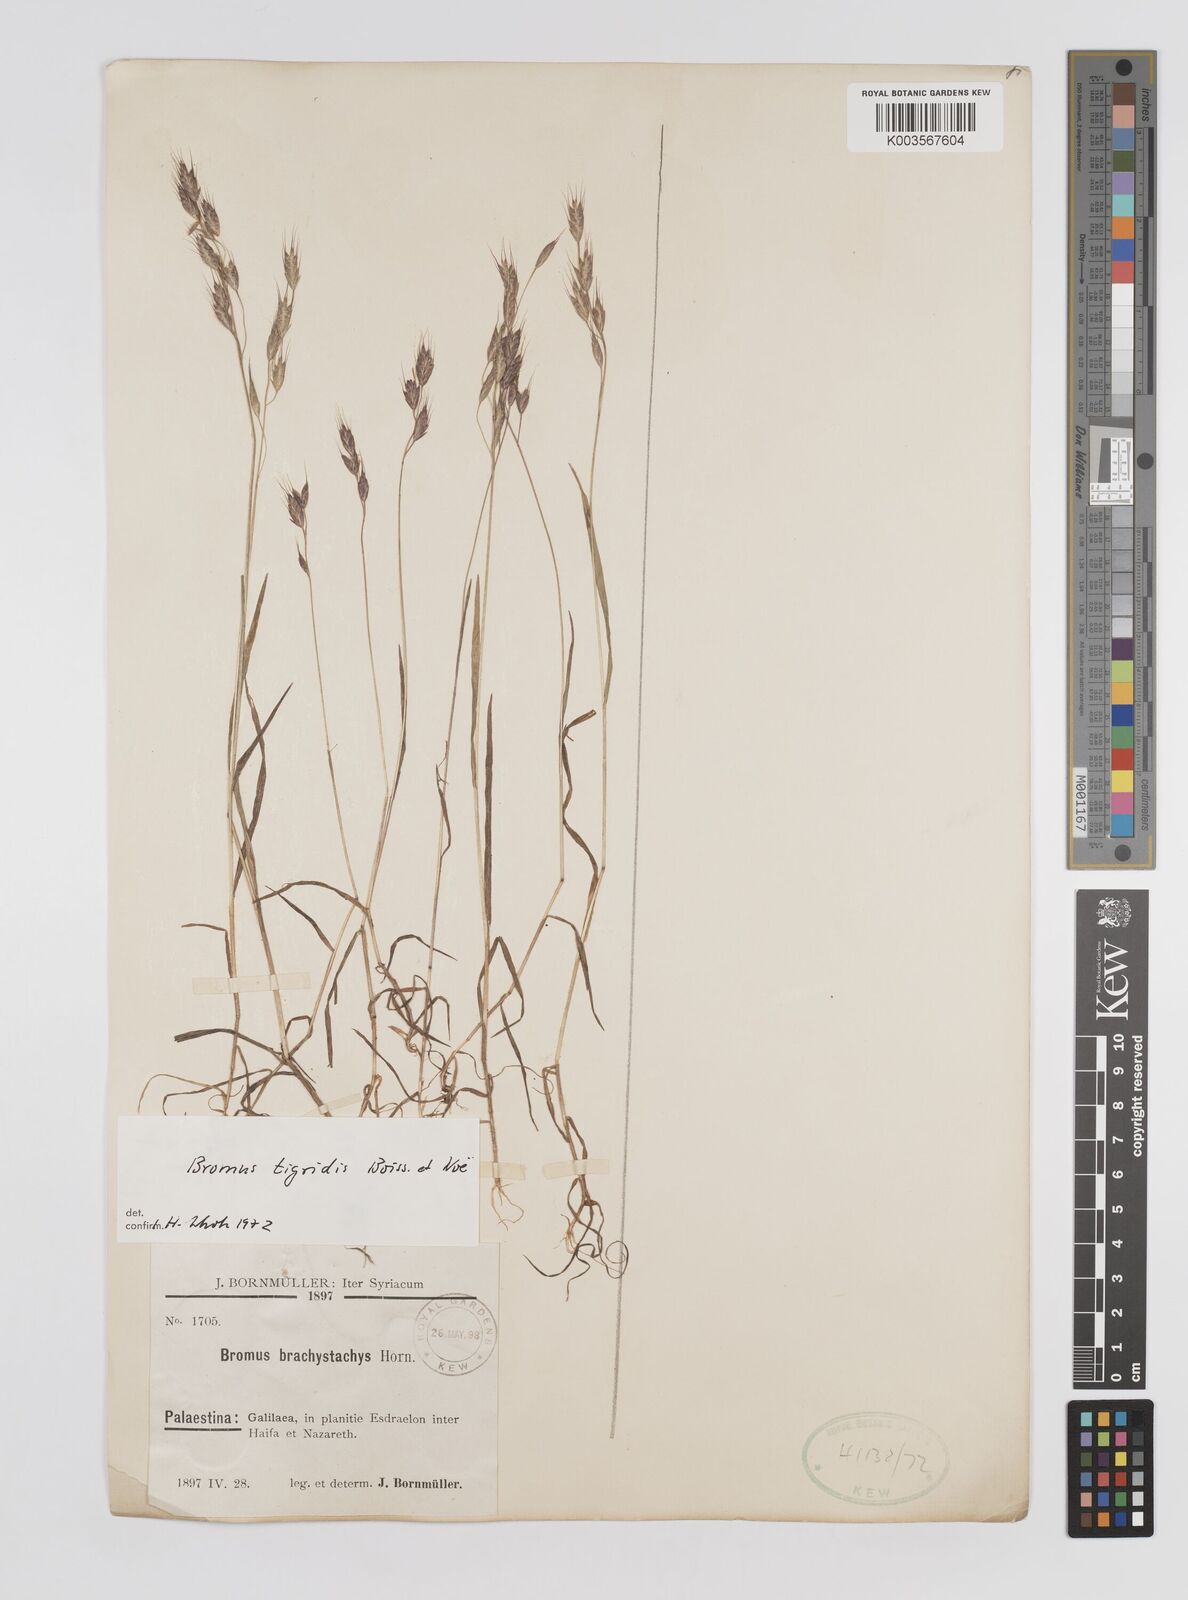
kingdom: Plantae
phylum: Tracheophyta
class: Liliopsida
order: Poales
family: Poaceae
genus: Bromus
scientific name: Bromus brachystachys
